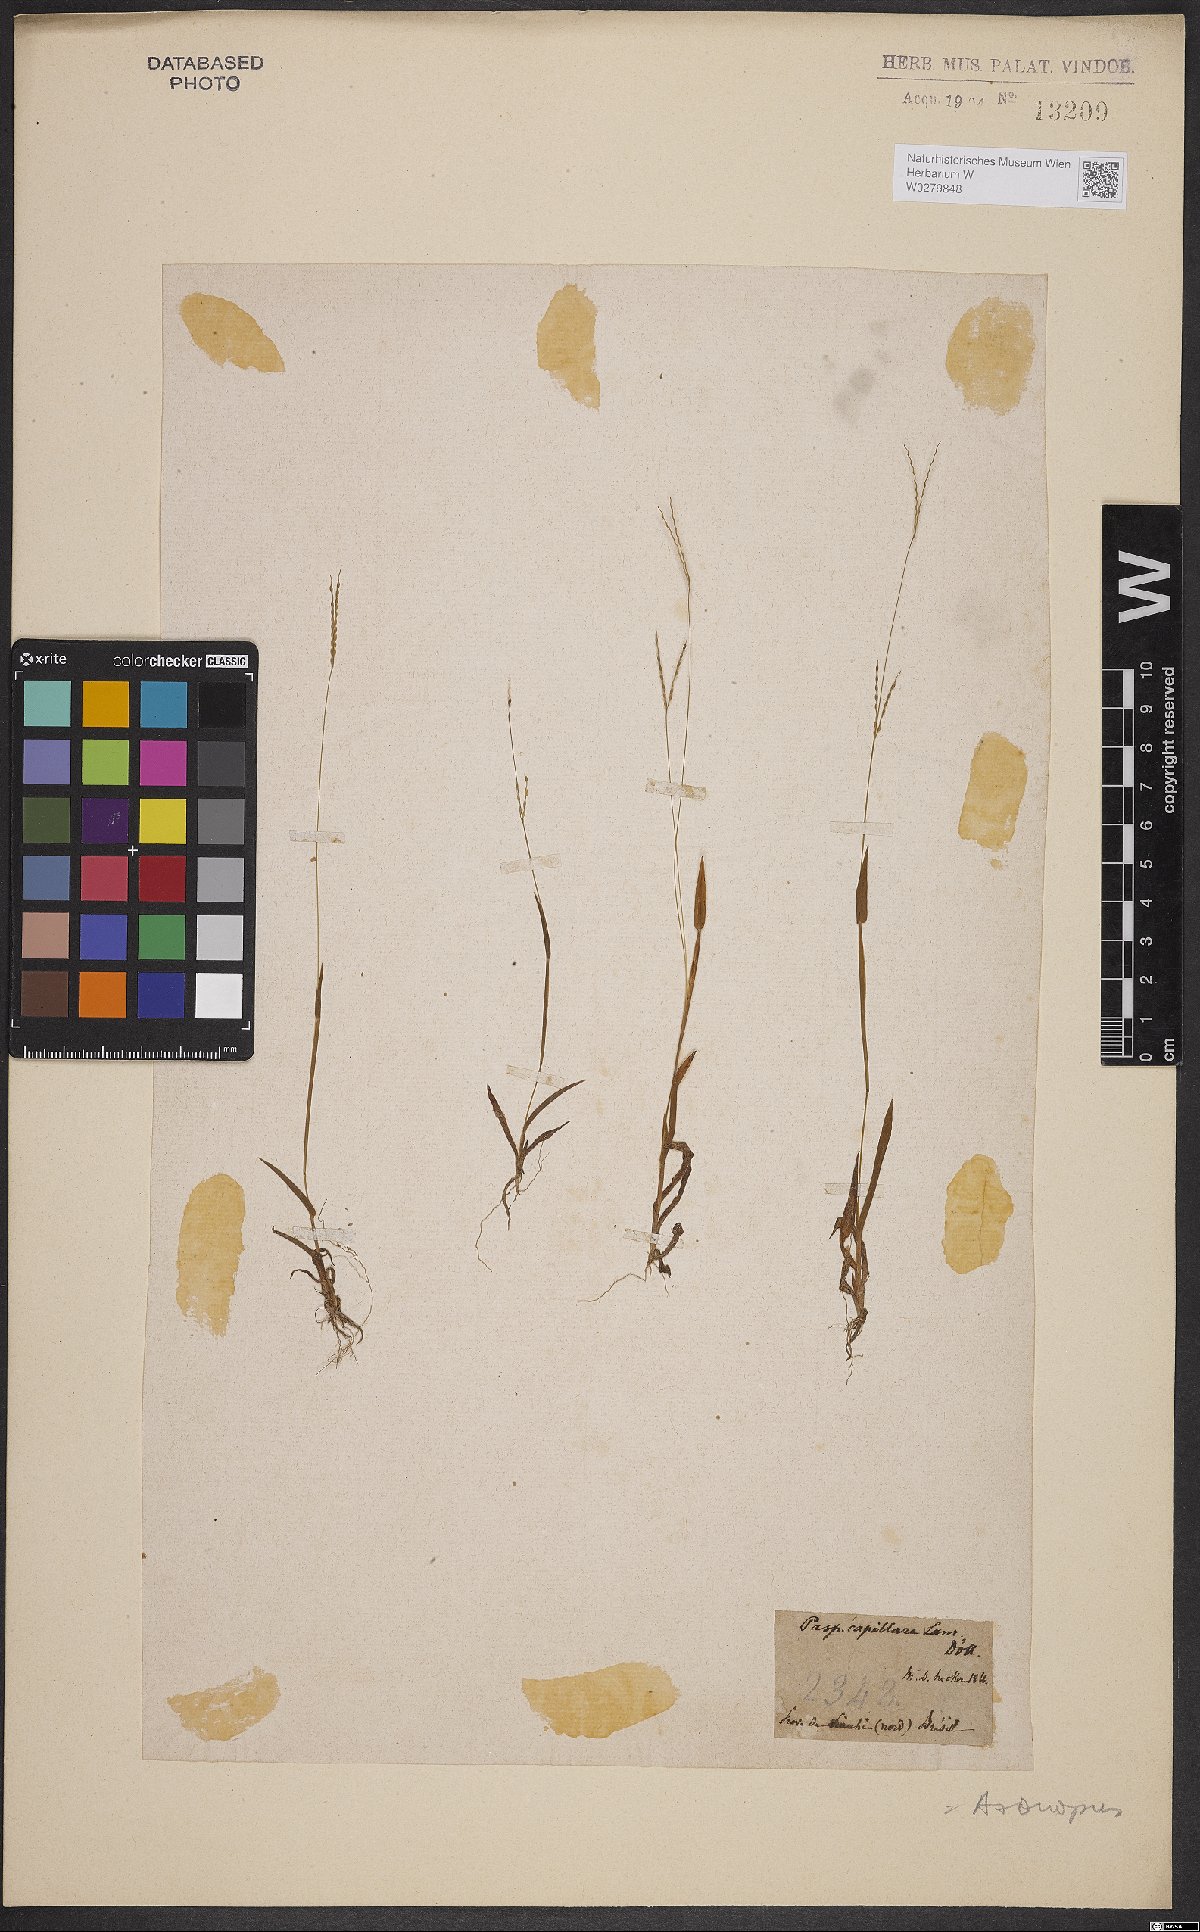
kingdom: Plantae
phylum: Tracheophyta
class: Liliopsida
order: Poales
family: Poaceae
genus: Axonopus
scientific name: Axonopus capillaris
